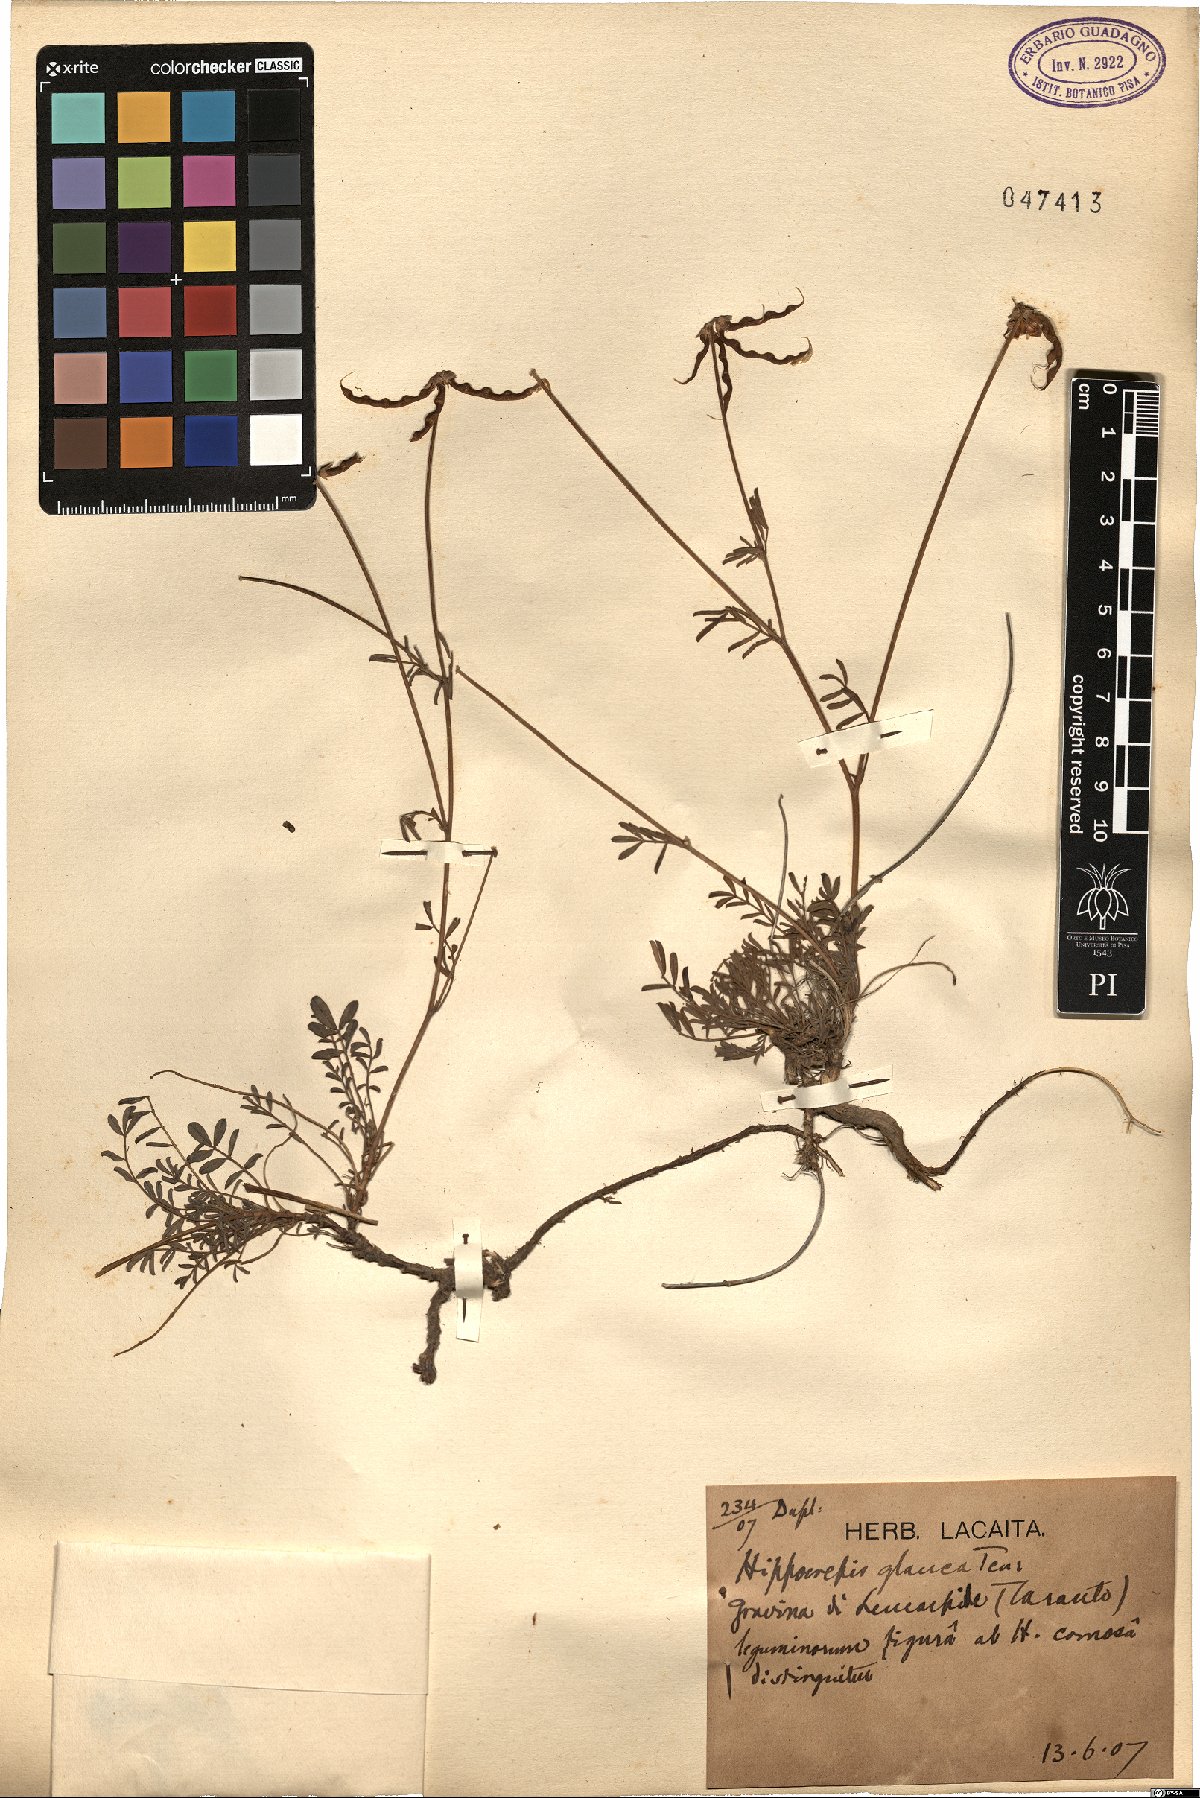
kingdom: Plantae
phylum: Tracheophyta
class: Magnoliopsida
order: Fabales
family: Fabaceae
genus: Hippocrepis
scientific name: Hippocrepis glauca
